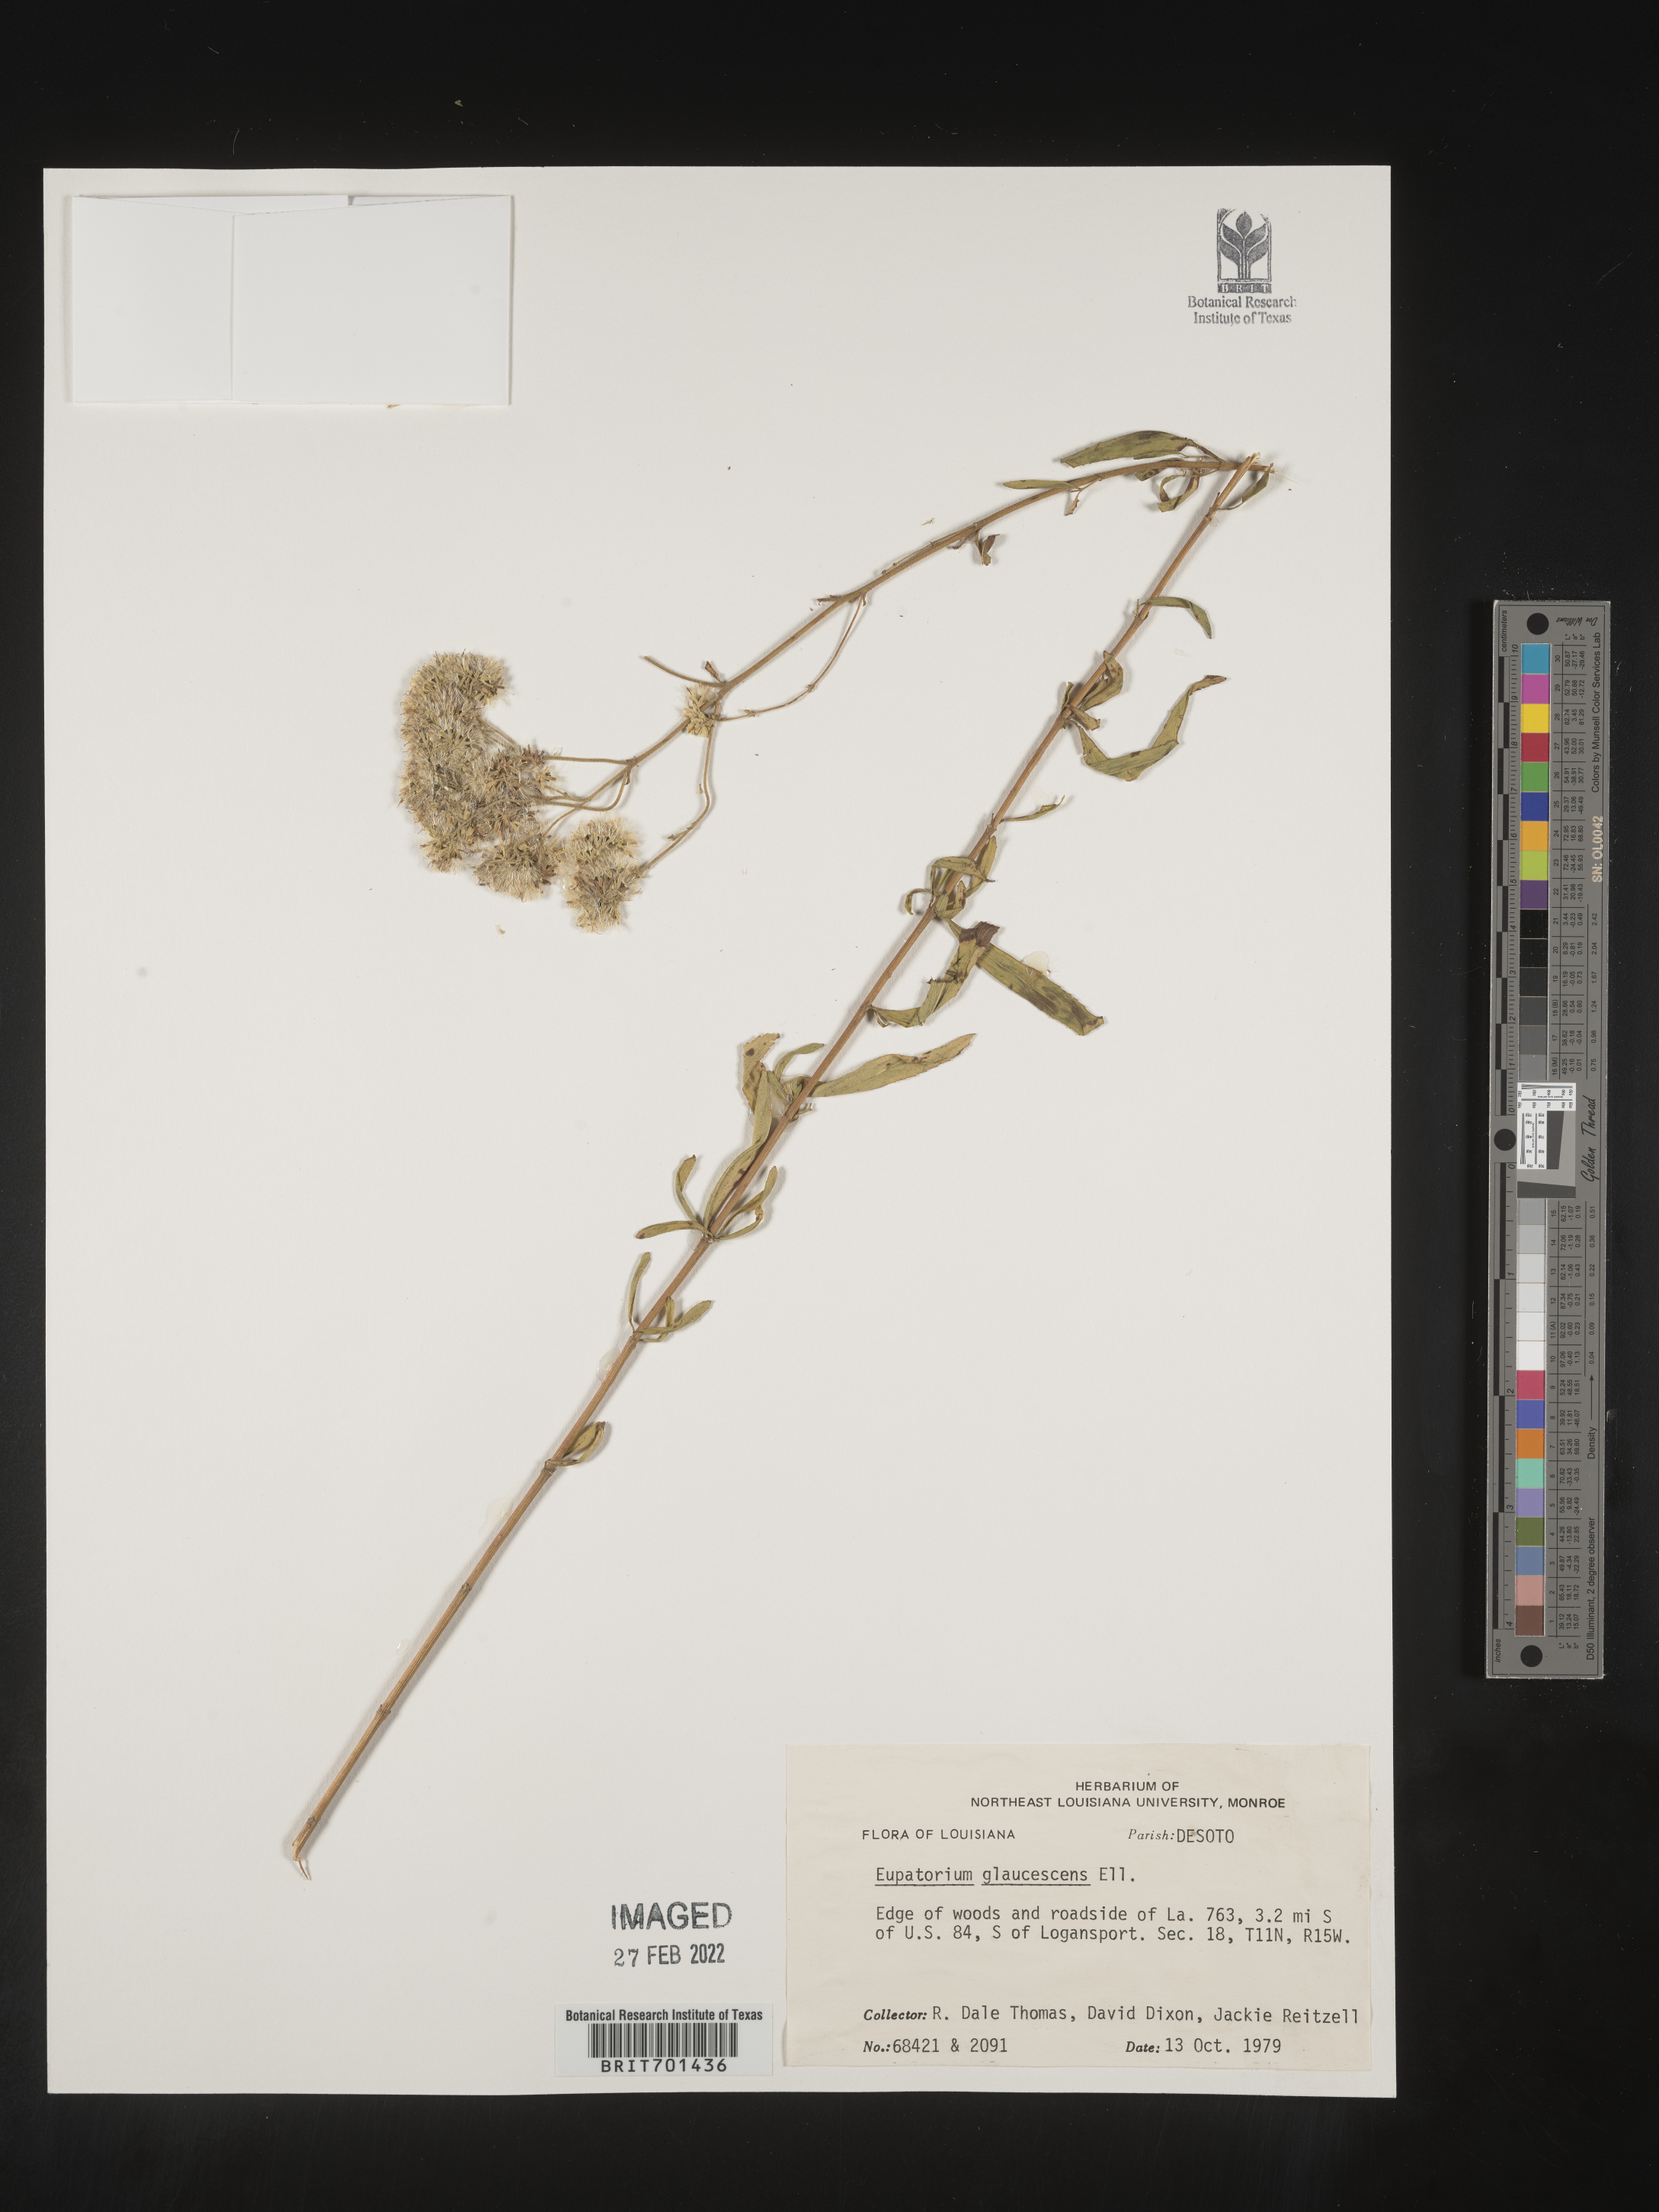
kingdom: Plantae
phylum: Tracheophyta
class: Magnoliopsida
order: Asterales
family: Asteraceae
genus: Eupatorium
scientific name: Eupatorium linearifolium
